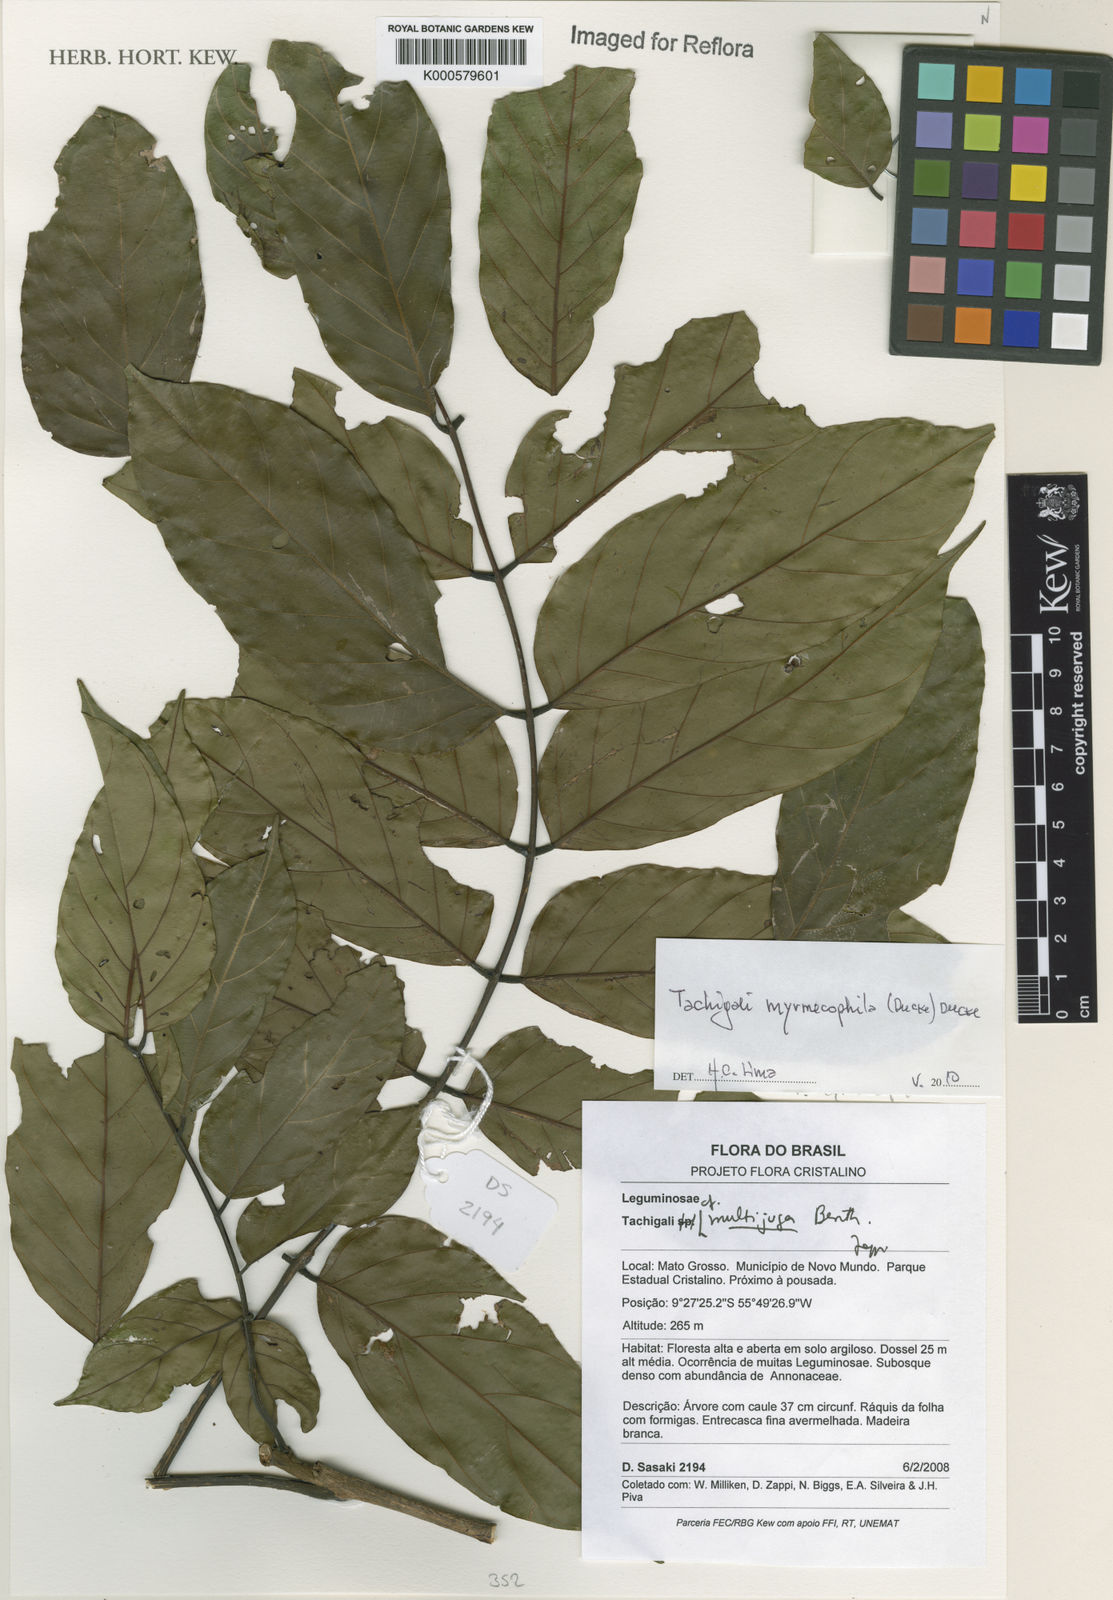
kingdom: Plantae
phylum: Tracheophyta
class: Magnoliopsida
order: Fabales
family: Fabaceae
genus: Tachigali
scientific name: Tachigali paratyensis
